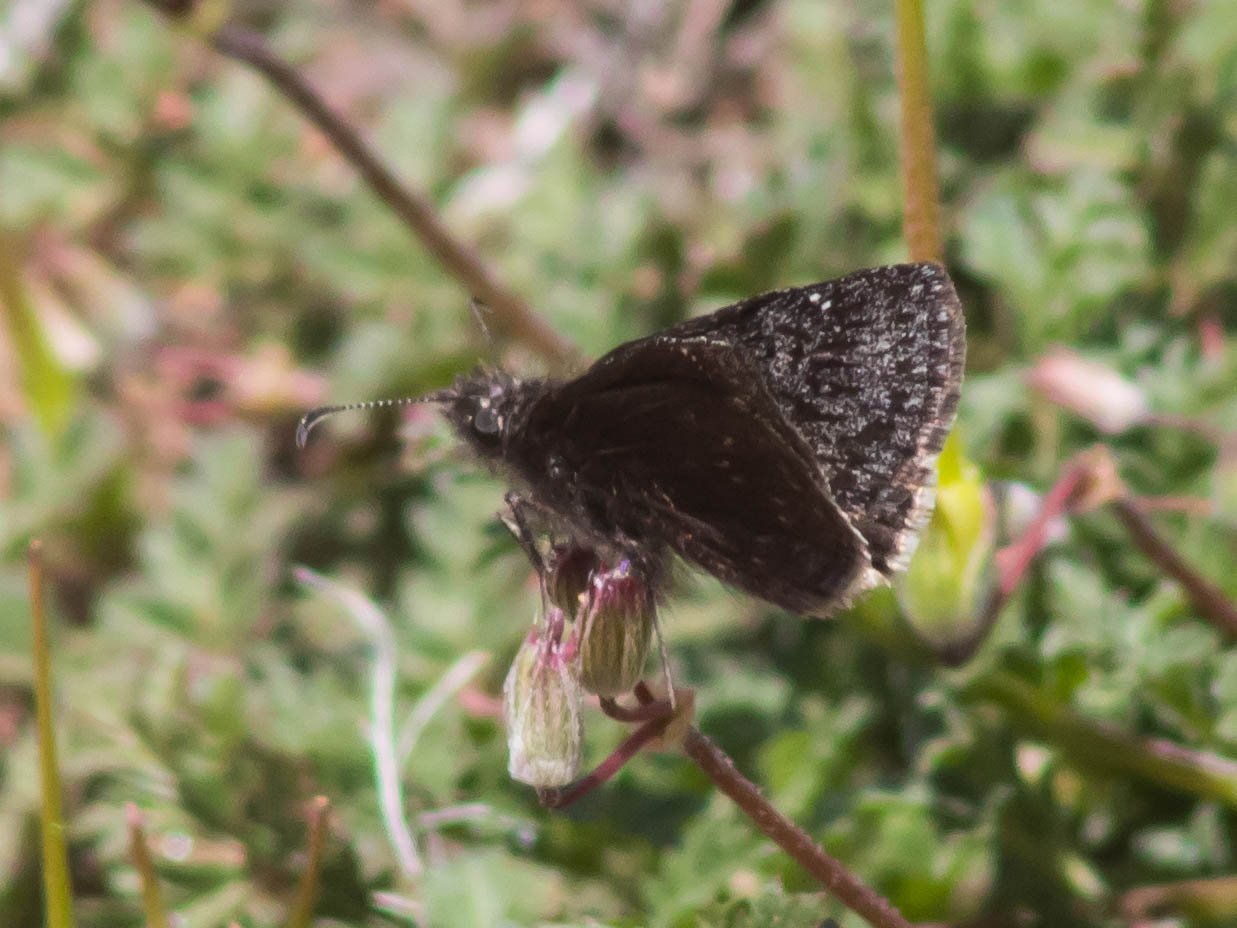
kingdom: Animalia
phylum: Arthropoda
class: Insecta
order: Lepidoptera
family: Hesperiidae
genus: Erynnis
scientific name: Erynnis afranius
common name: Afranius Duskywing
